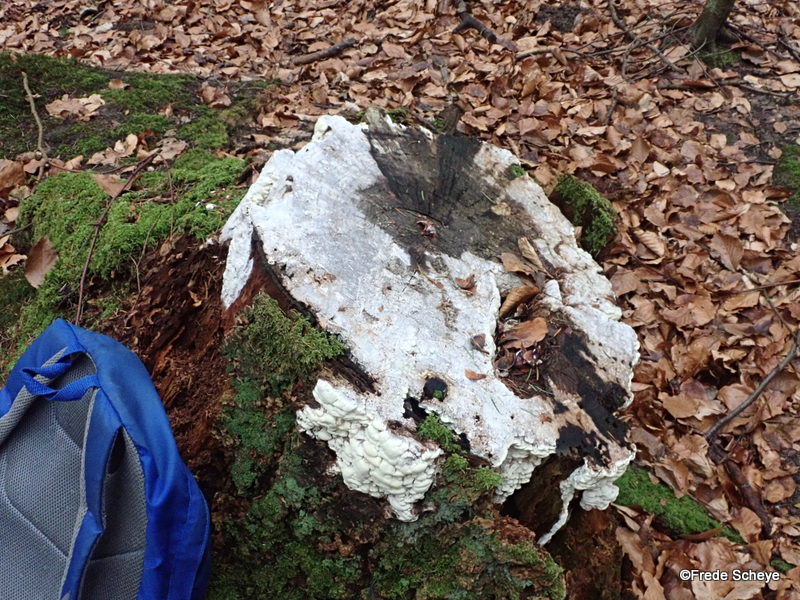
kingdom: Fungi
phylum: Basidiomycota
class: Agaricomycetes
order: Polyporales
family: Fomitopsidaceae
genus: Daedalea
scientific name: Daedalea xantha
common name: gul sejporesvamp
